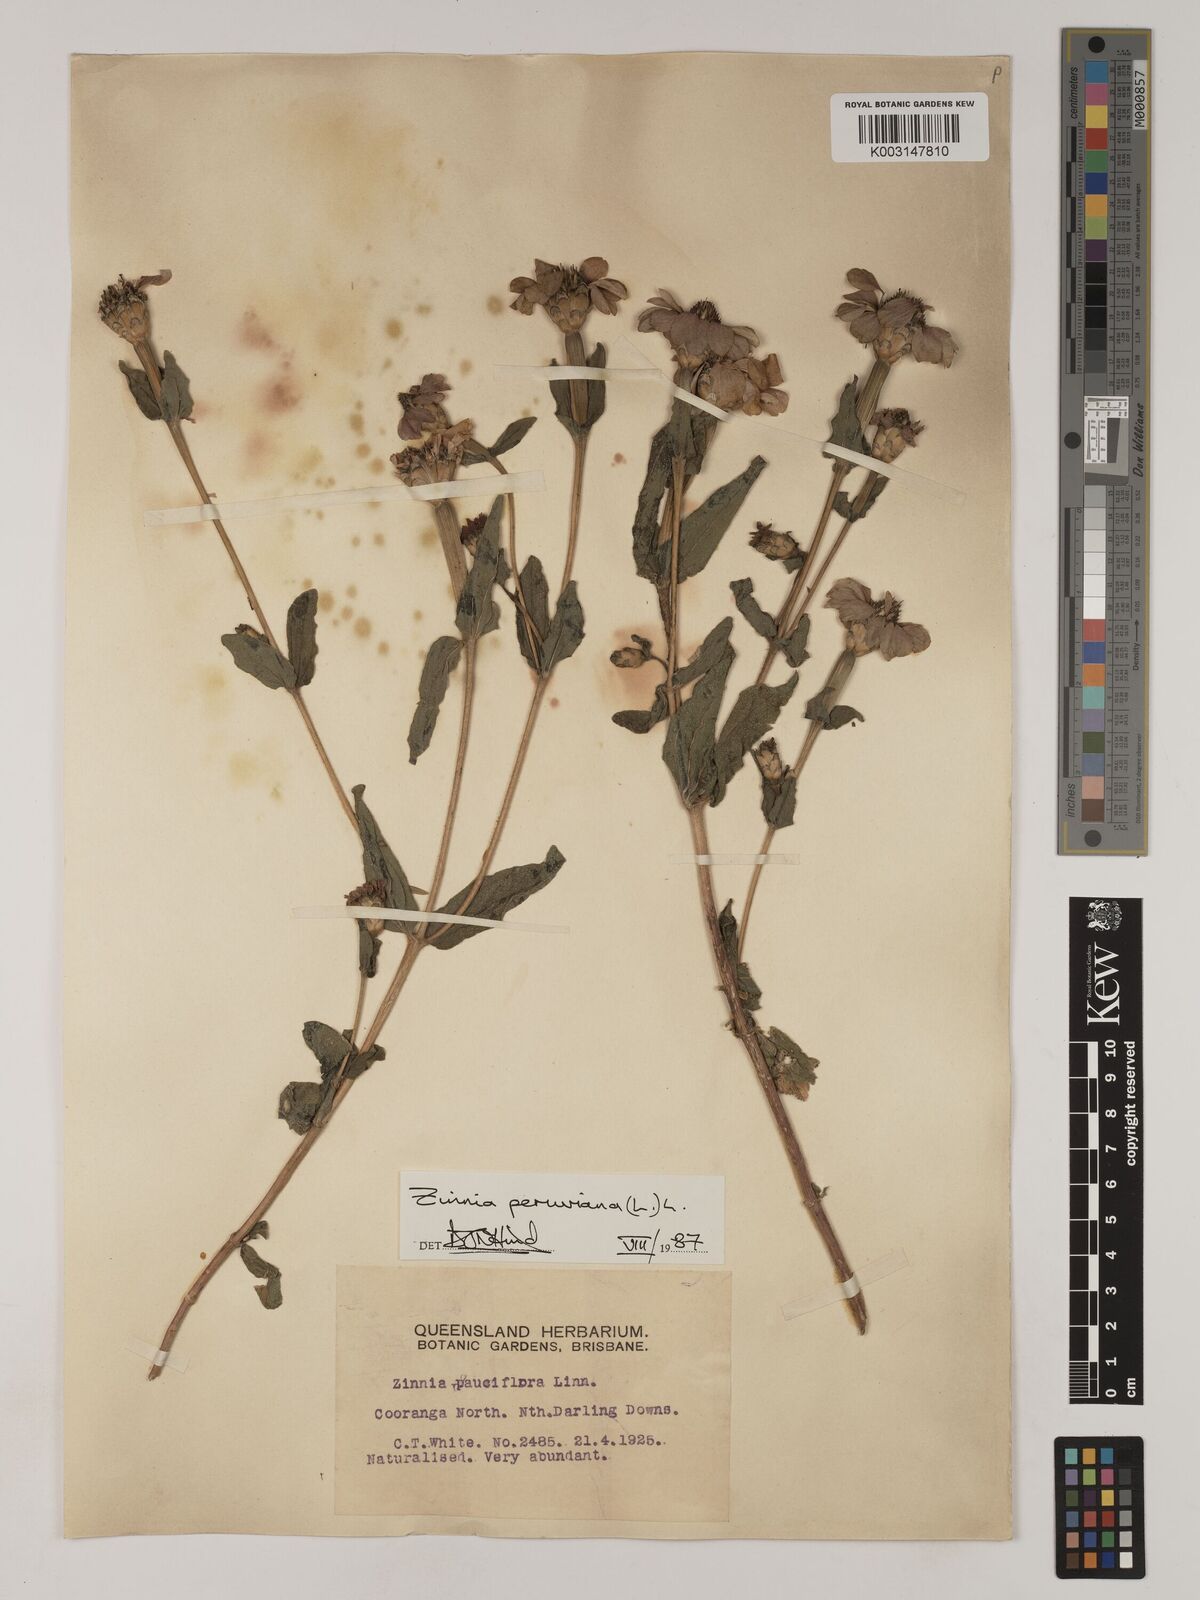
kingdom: Plantae
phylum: Tracheophyta
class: Magnoliopsida
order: Asterales
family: Asteraceae
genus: Zinnia
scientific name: Zinnia peruviana
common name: Peruvian zinnia
